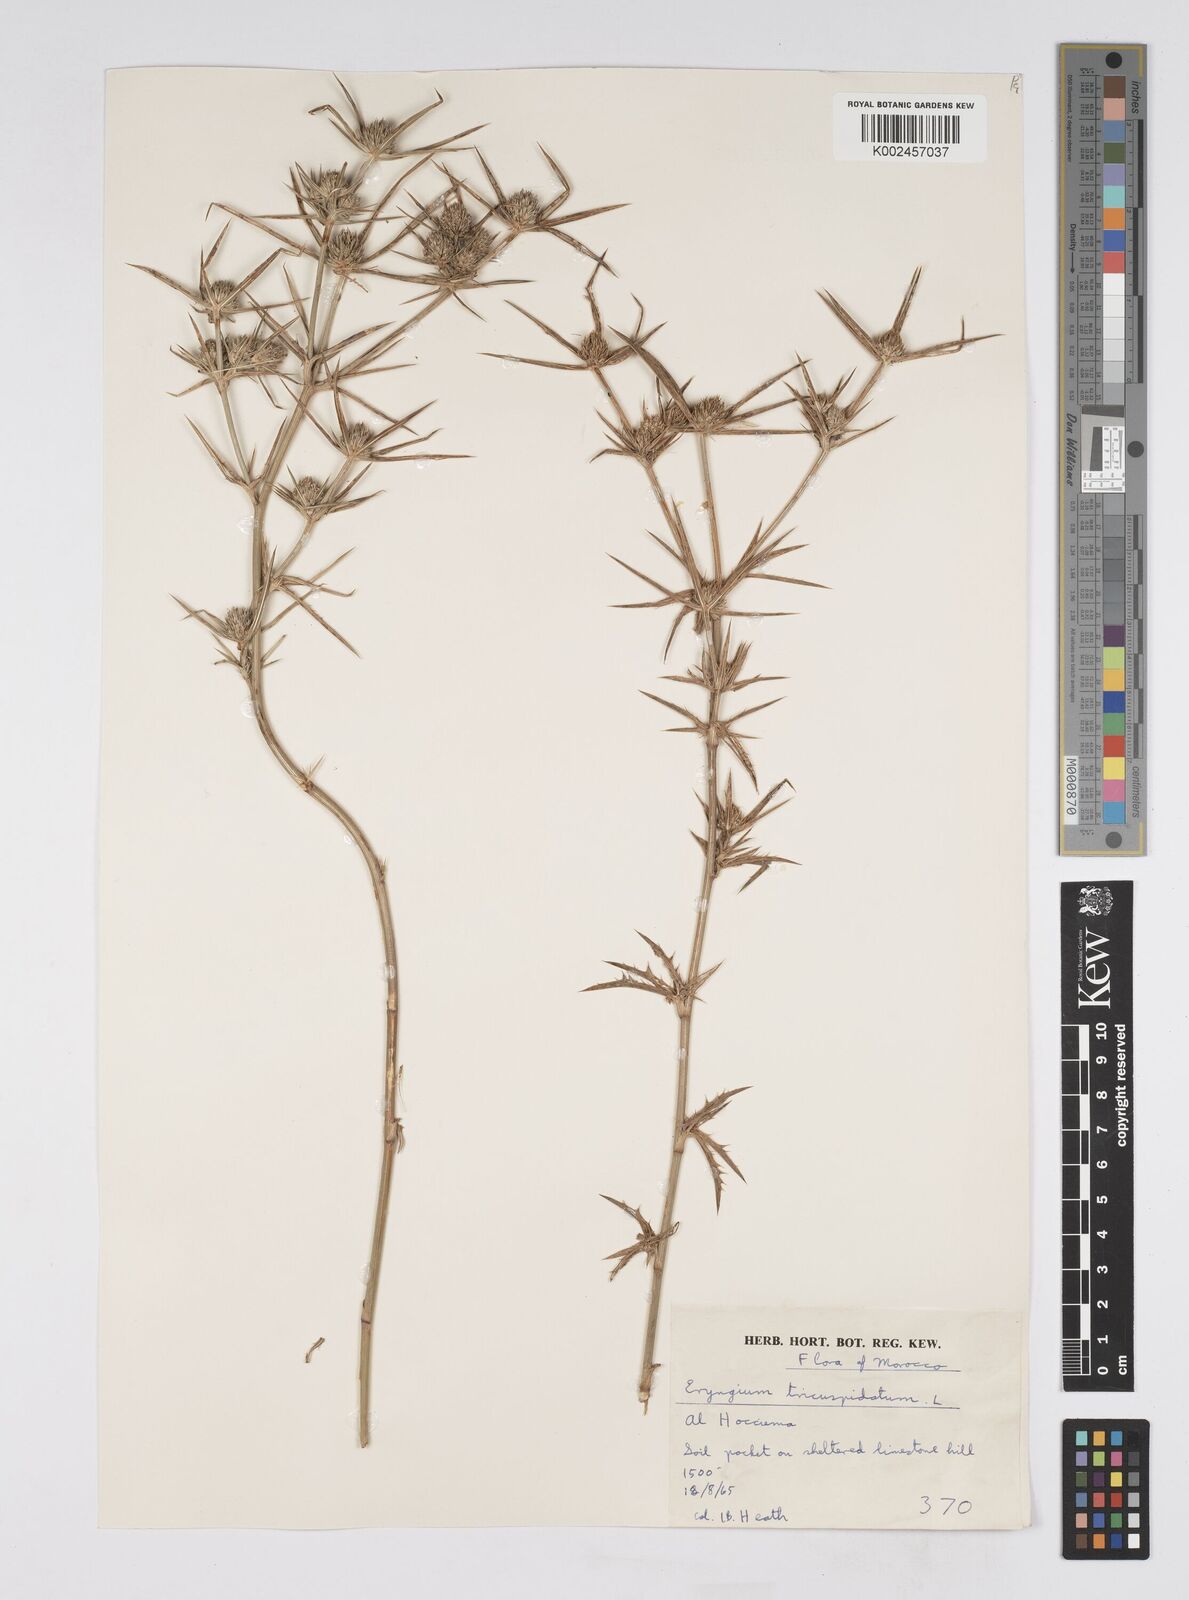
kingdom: Plantae
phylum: Tracheophyta
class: Magnoliopsida
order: Apiales
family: Apiaceae
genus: Eryngium
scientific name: Eryngium tricuspidatum
